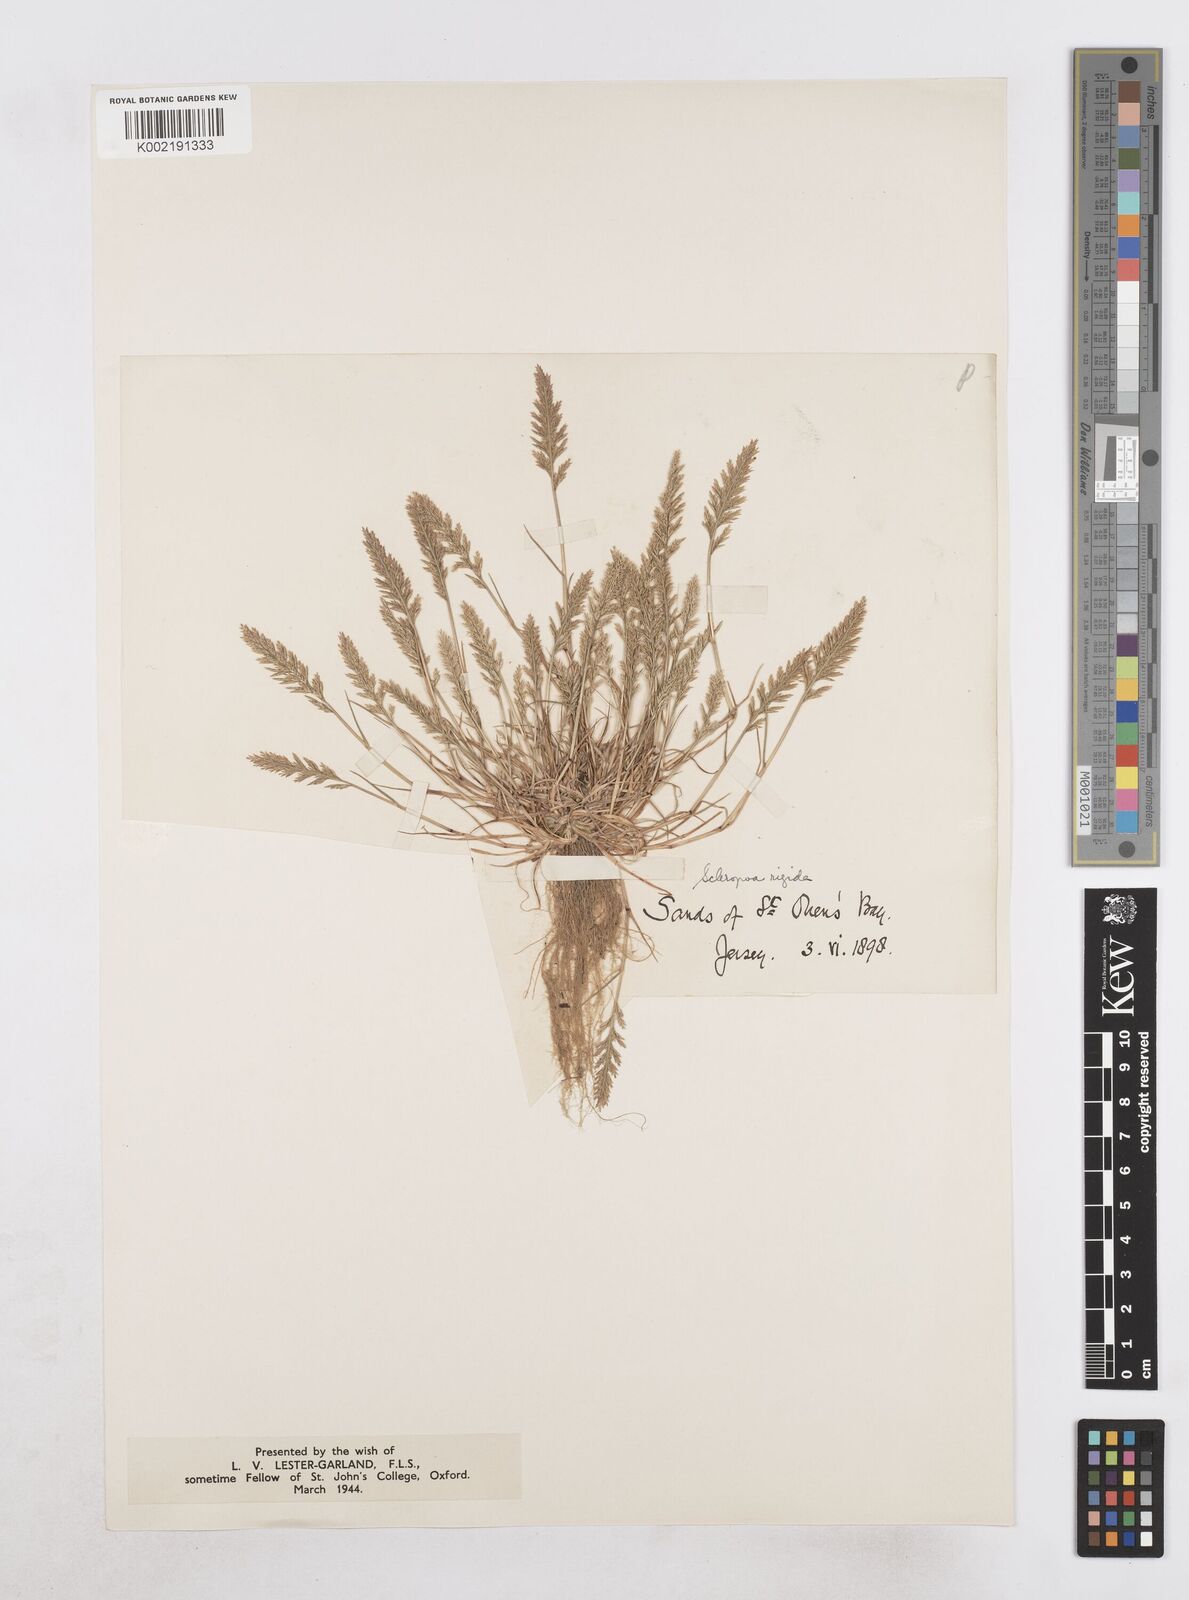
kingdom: Plantae
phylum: Tracheophyta
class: Liliopsida
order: Poales
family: Poaceae
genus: Catapodium
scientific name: Catapodium rigidum
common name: Fern-grass
